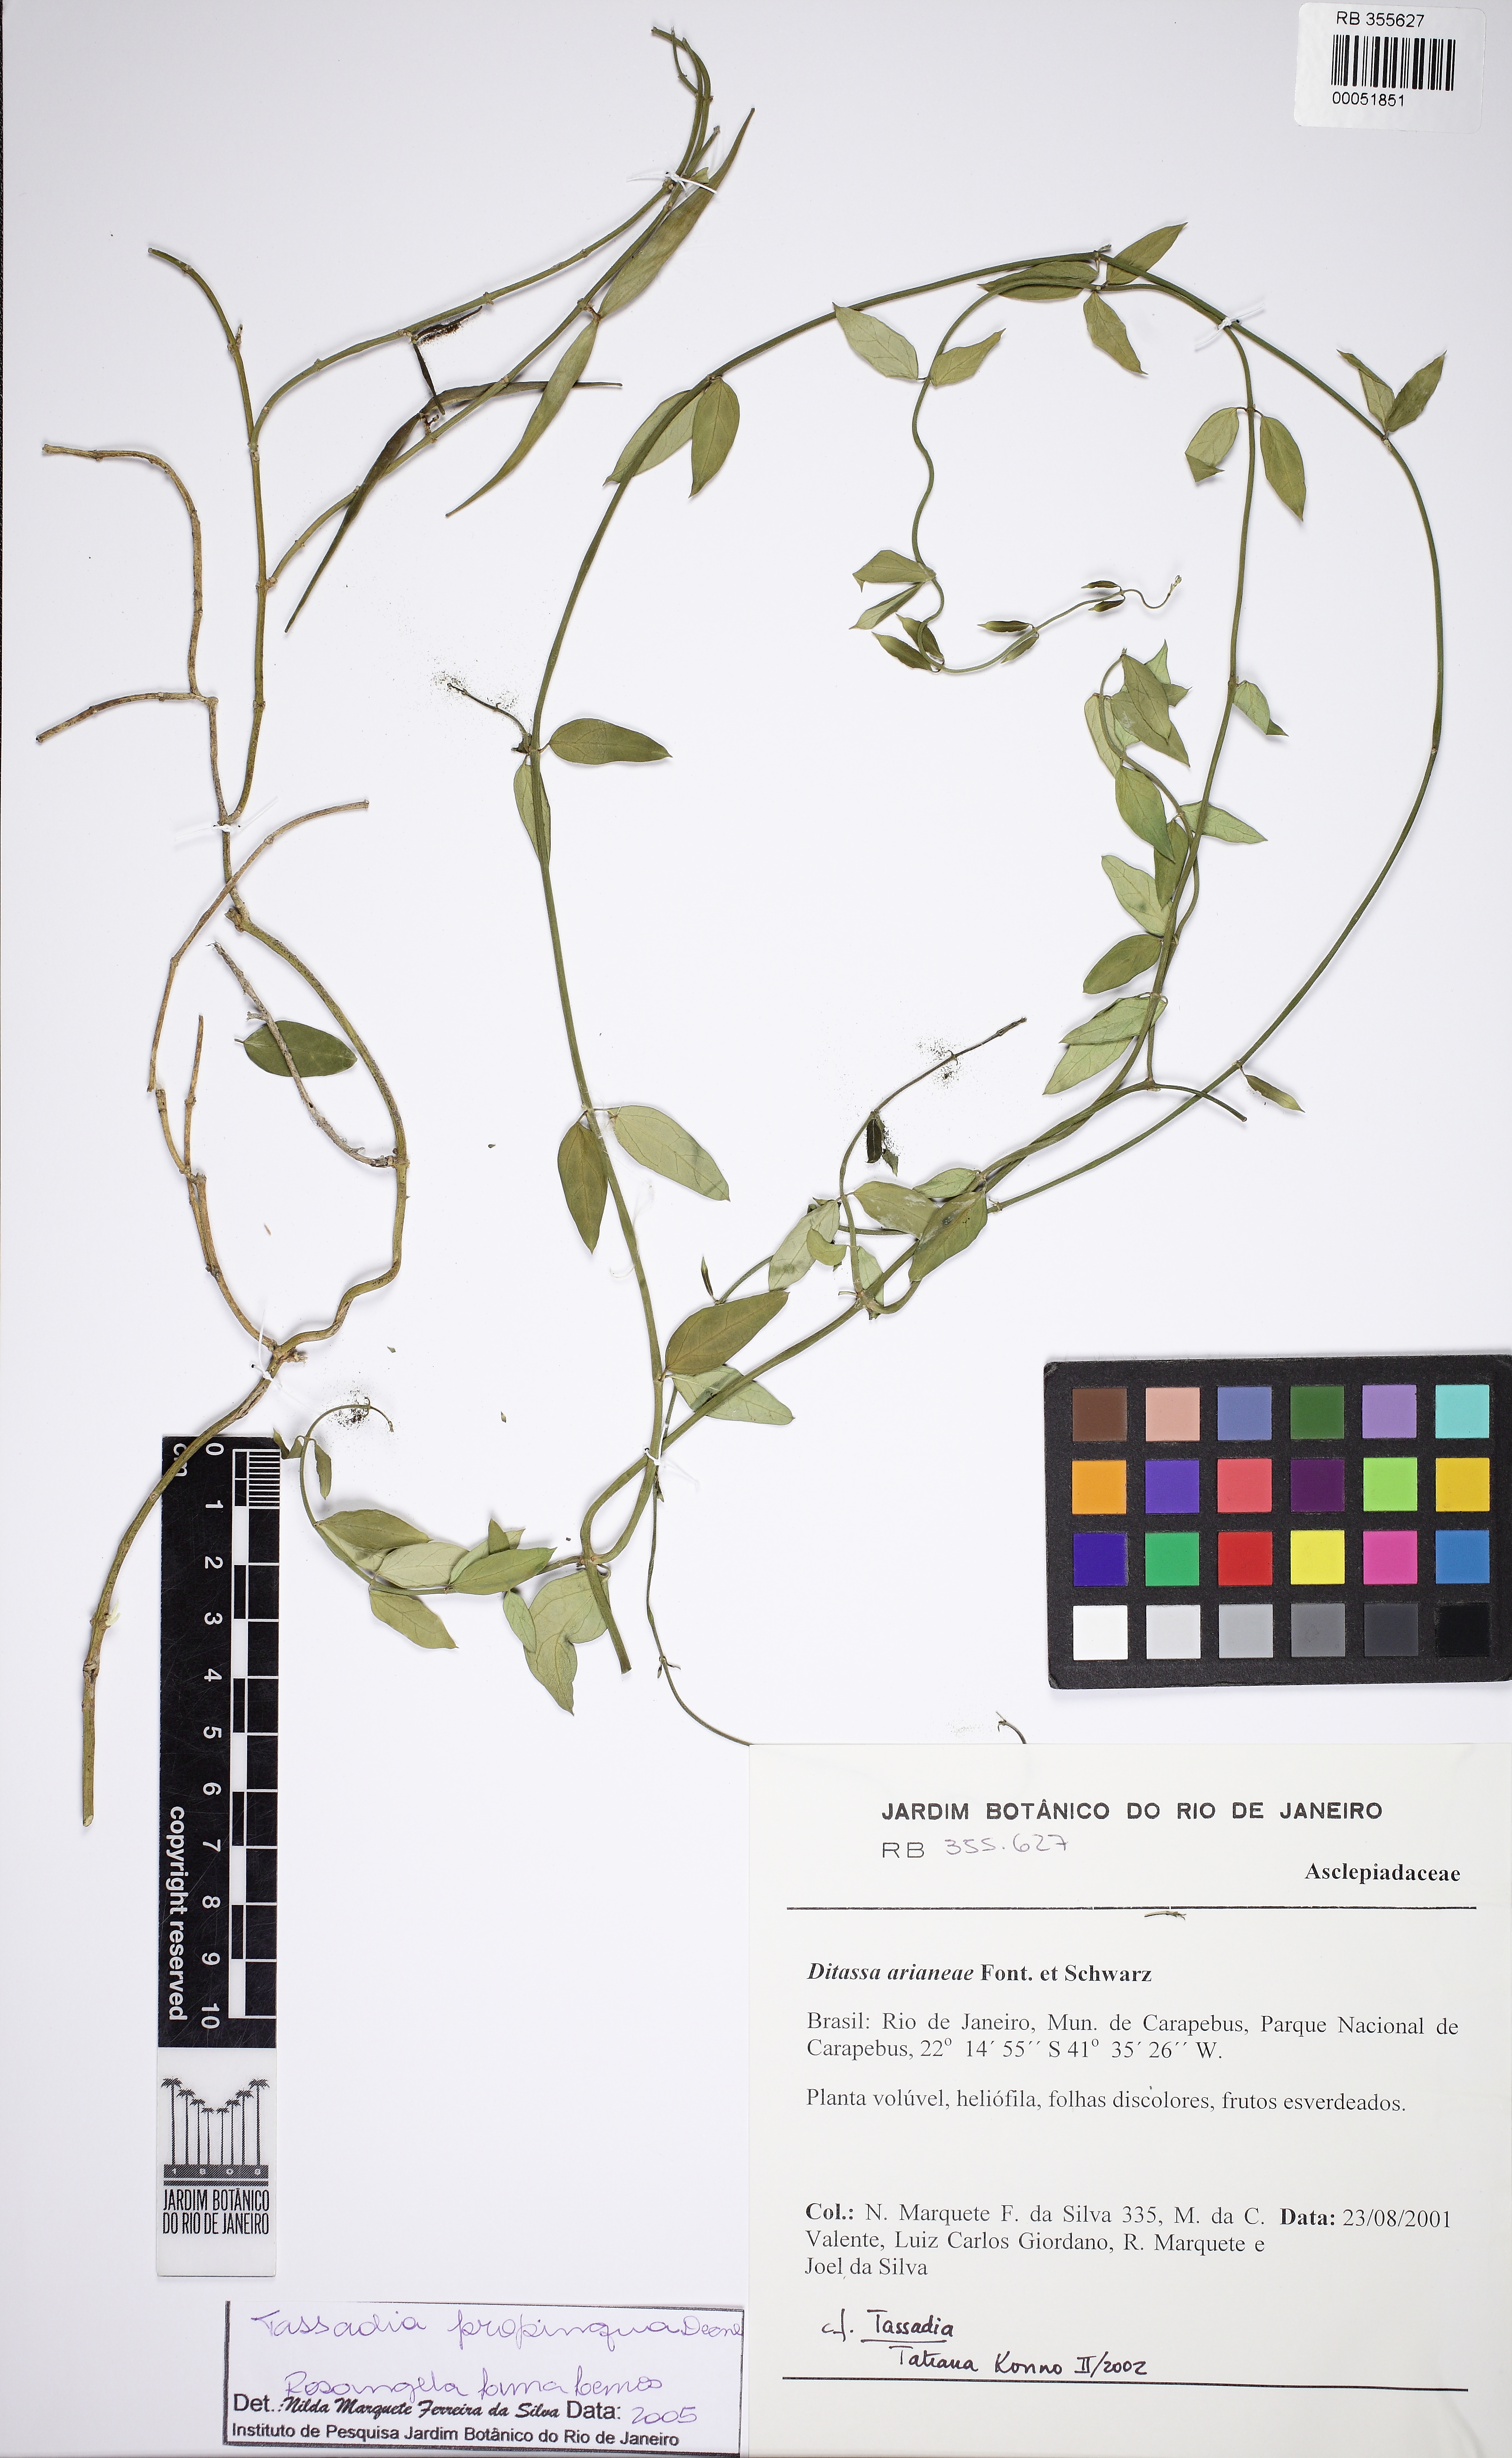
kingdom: Plantae
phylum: Tracheophyta
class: Magnoliopsida
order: Gentianales
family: Apocynaceae
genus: Tassadia
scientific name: Tassadia propinqua
